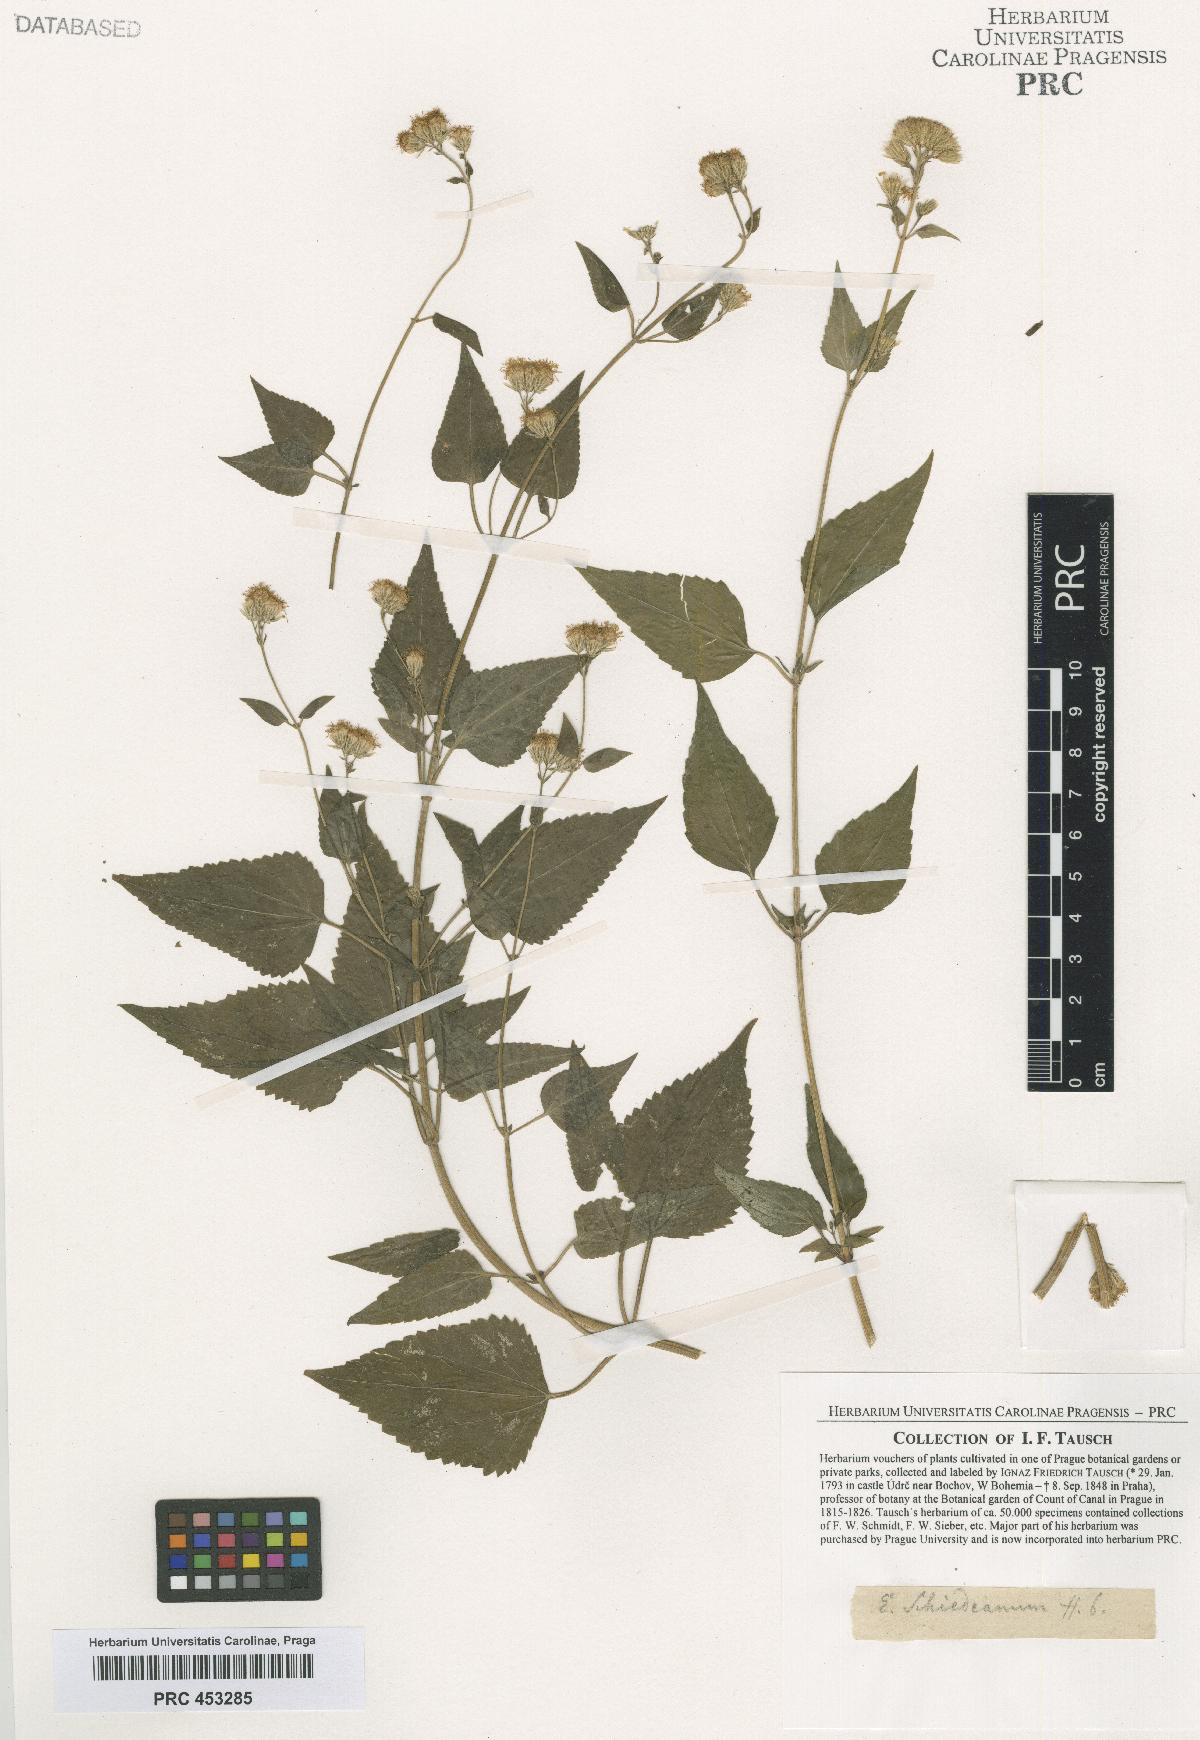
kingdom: Plantae
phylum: Tracheophyta
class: Magnoliopsida
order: Asterales
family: Asteraceae
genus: Fleischmannia
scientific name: Fleischmannia pycnocephala
